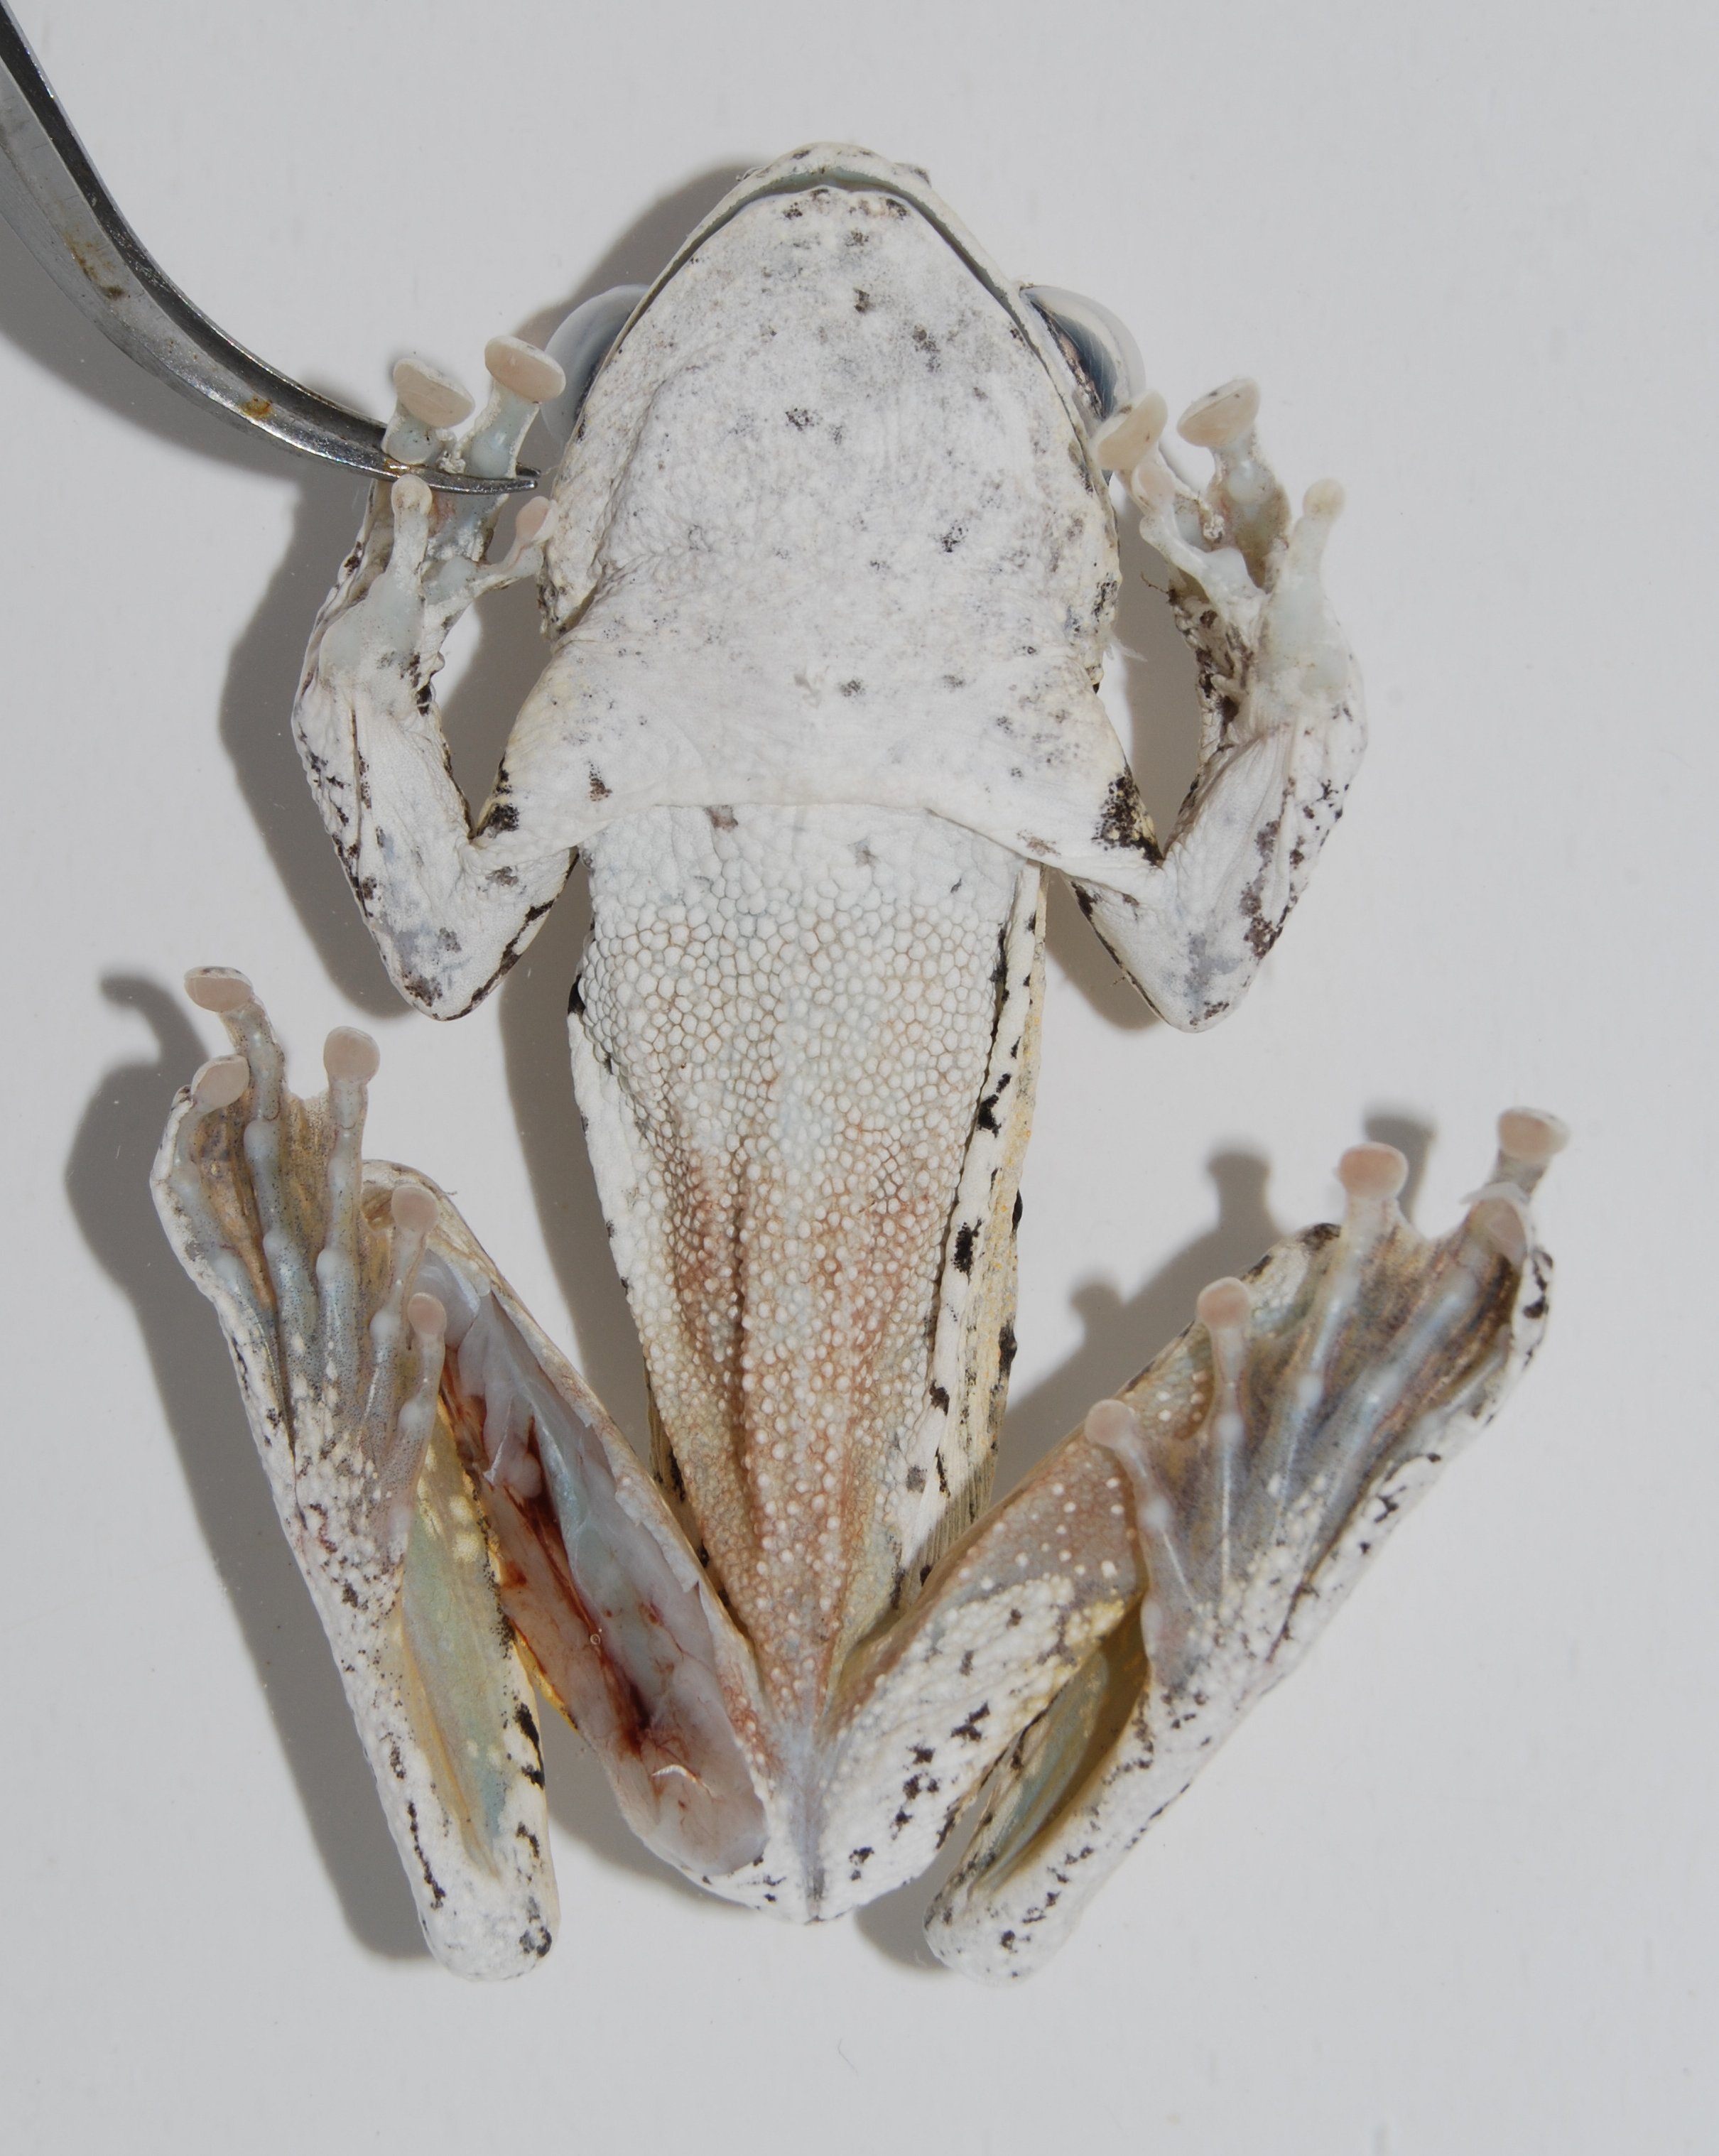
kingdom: Animalia
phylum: Chordata
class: Amphibia
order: Anura
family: Rhacophoridae
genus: Chiromantis
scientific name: Chiromantis xerampelina
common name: African gray treefrog
